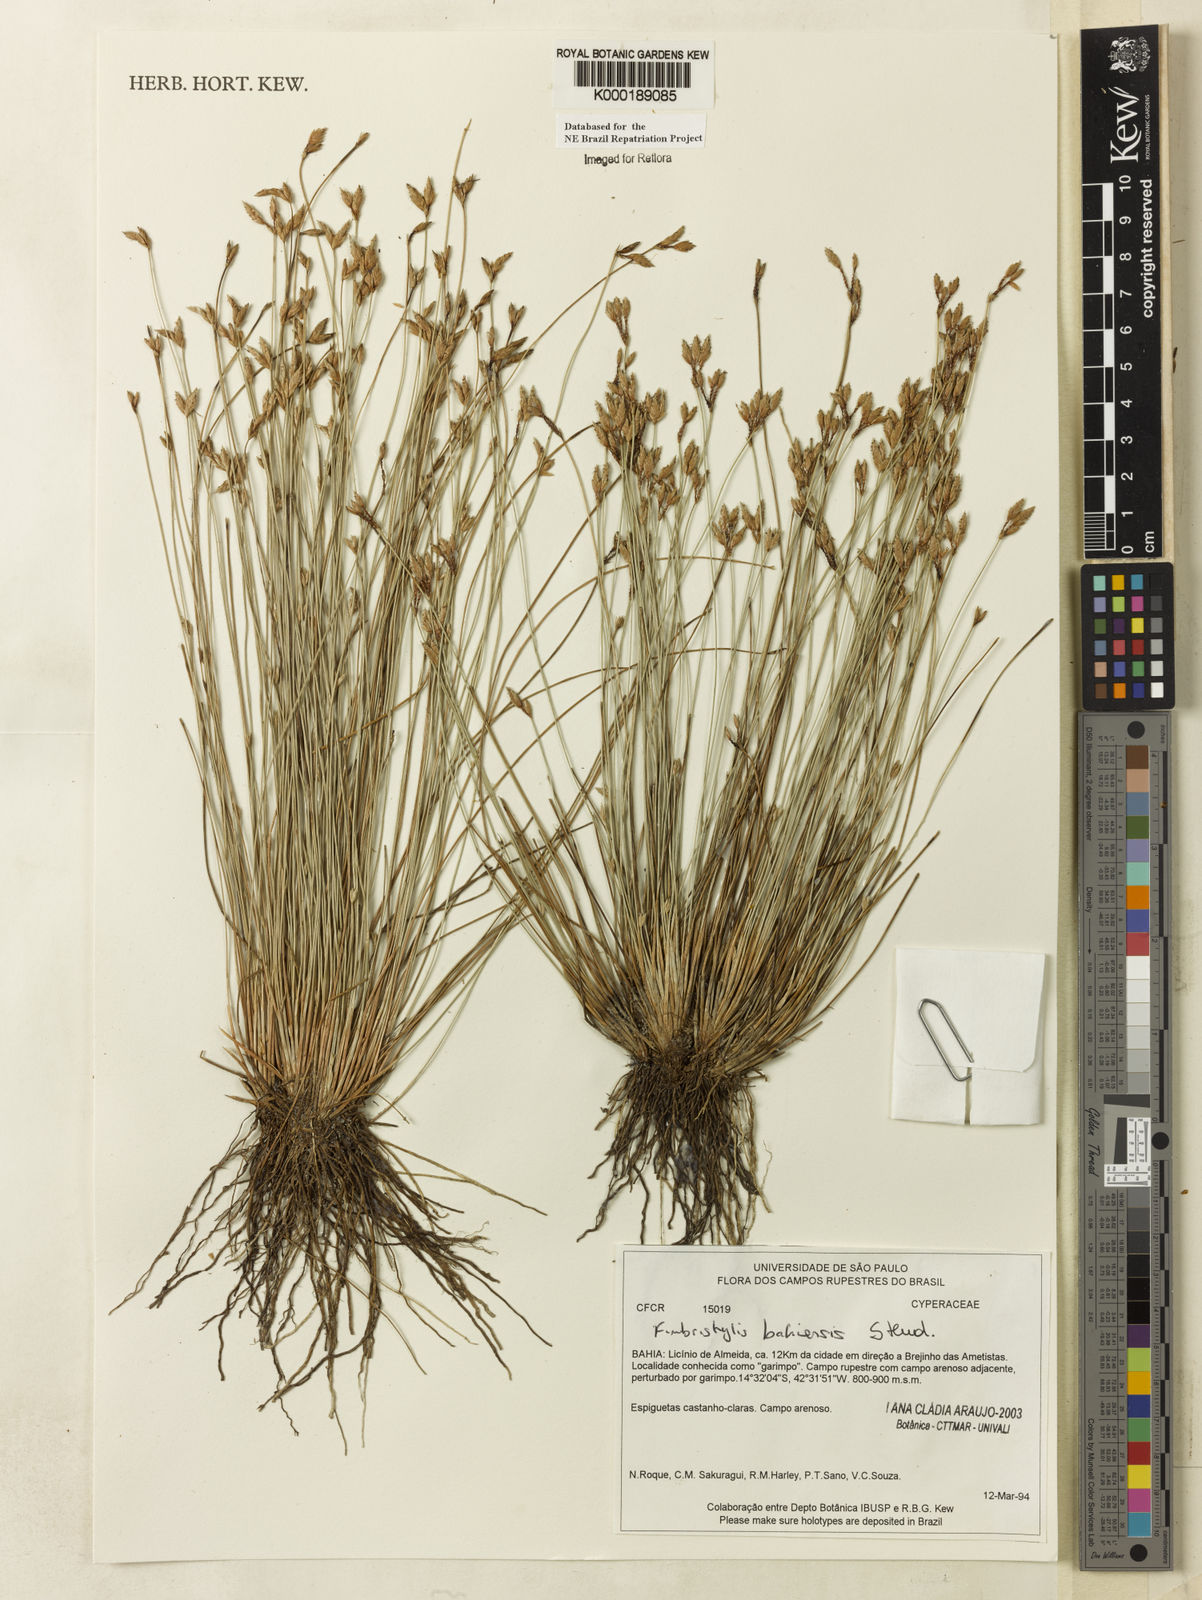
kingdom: Plantae
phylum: Tracheophyta
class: Liliopsida
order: Poales
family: Cyperaceae
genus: Fimbristylis
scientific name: Fimbristylis bahiensis
